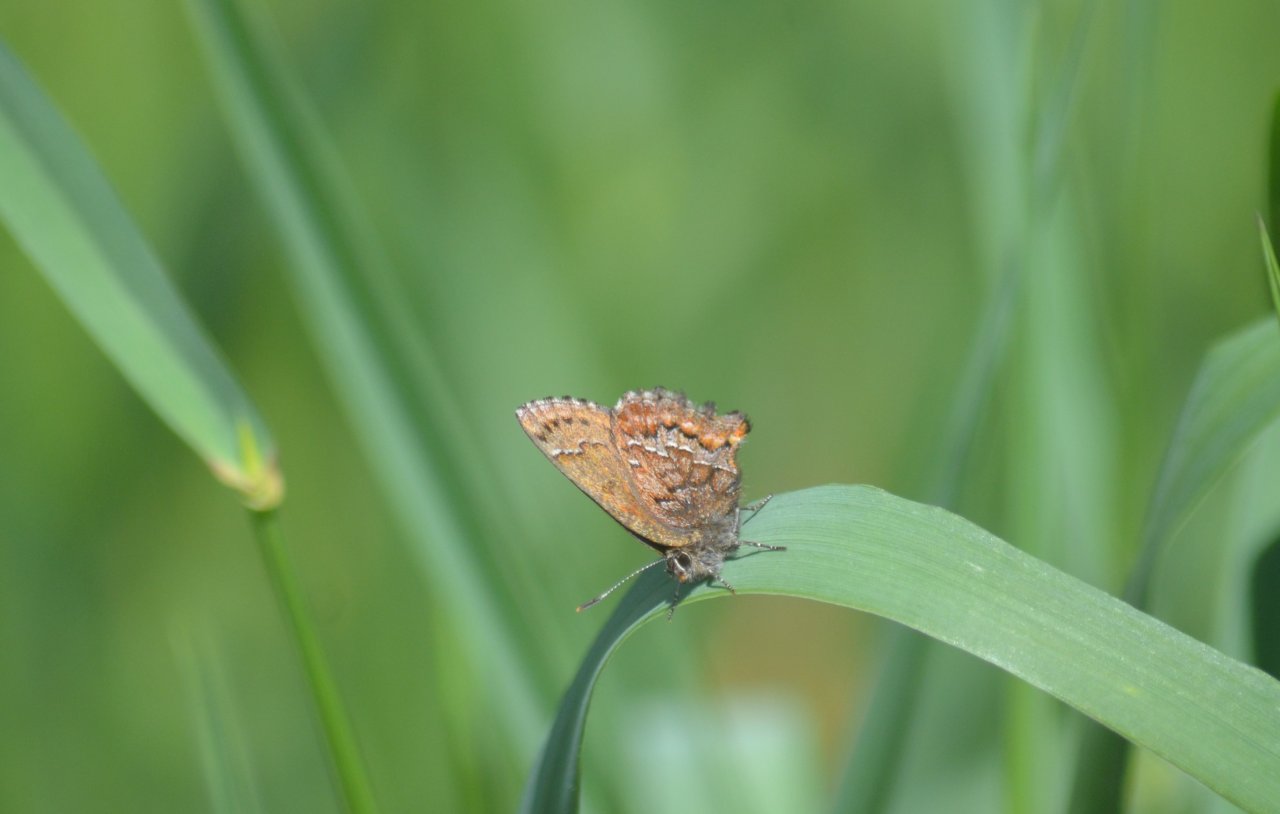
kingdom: Animalia
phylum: Arthropoda
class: Insecta
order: Lepidoptera
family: Lycaenidae
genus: Incisalia
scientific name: Incisalia niphon
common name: Eastern Pine Elfin
